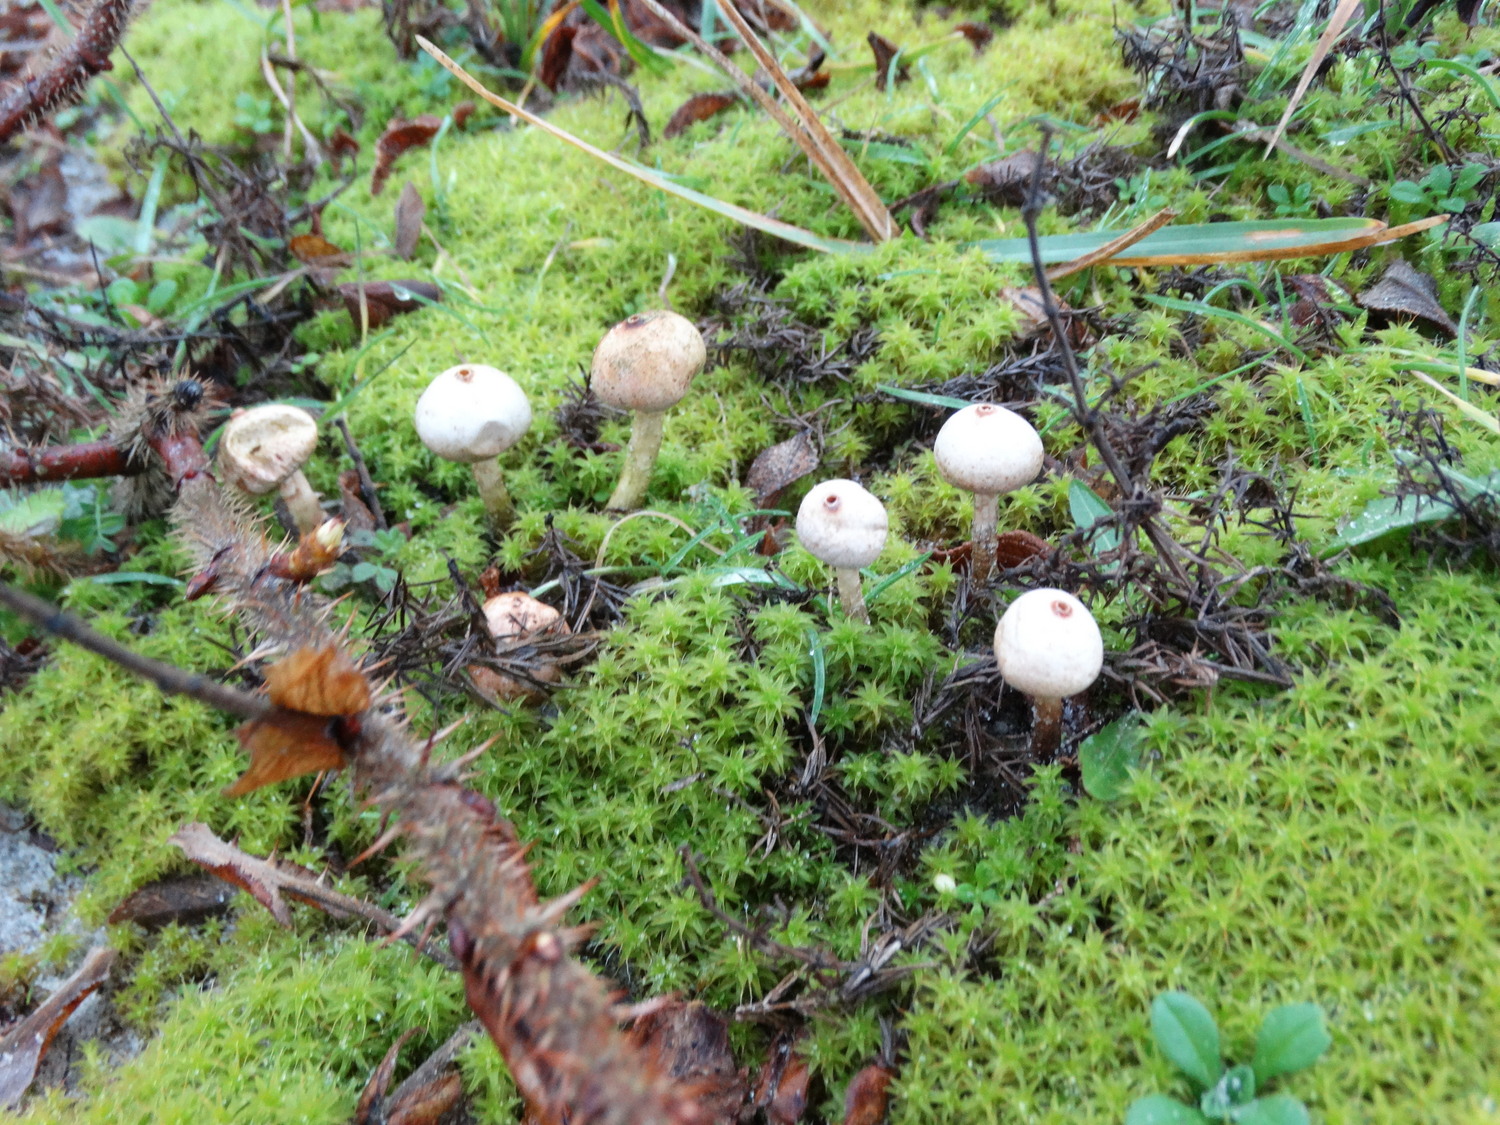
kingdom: Fungi
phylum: Basidiomycota
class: Agaricomycetes
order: Agaricales
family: Agaricaceae
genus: Tulostoma
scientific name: Tulostoma brumale
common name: vinter-stilkbovist
